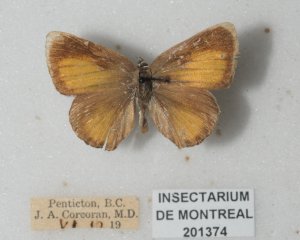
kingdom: Animalia
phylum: Arthropoda
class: Insecta
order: Lepidoptera
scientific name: Lepidoptera
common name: Butterflies
